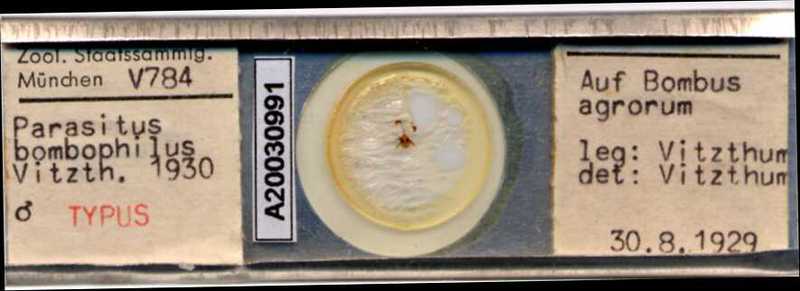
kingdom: Animalia
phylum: Arthropoda
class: Arachnida
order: Mesostigmata
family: Parasitidae
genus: Parasitus
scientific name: Parasitus bombophilus
